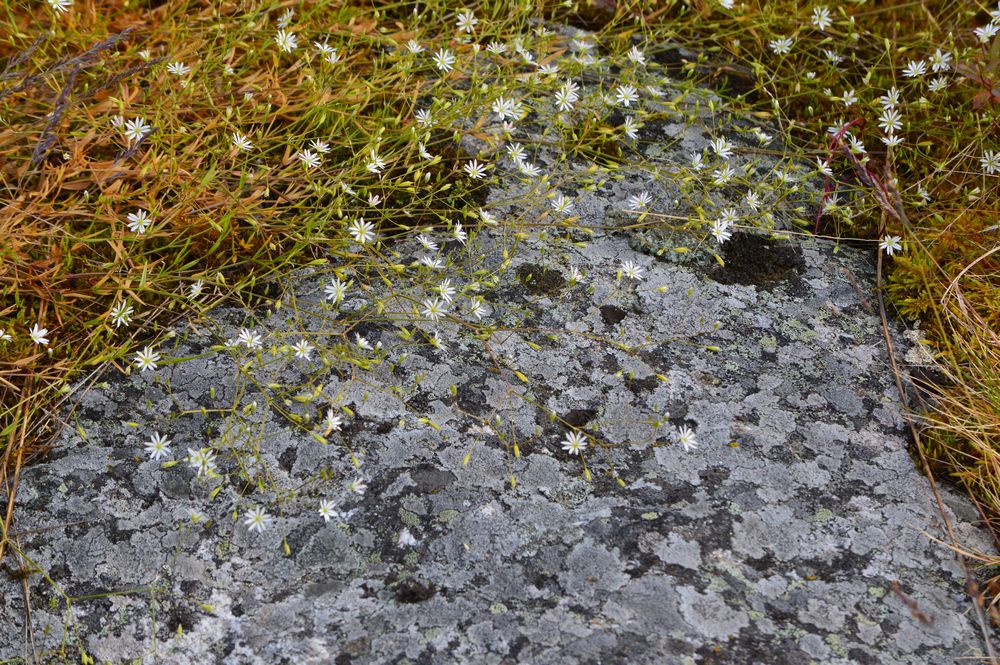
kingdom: Plantae
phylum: Tracheophyta
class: Magnoliopsida
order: Caryophyllales
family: Caryophyllaceae
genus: Stellaria
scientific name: Stellaria graminea
